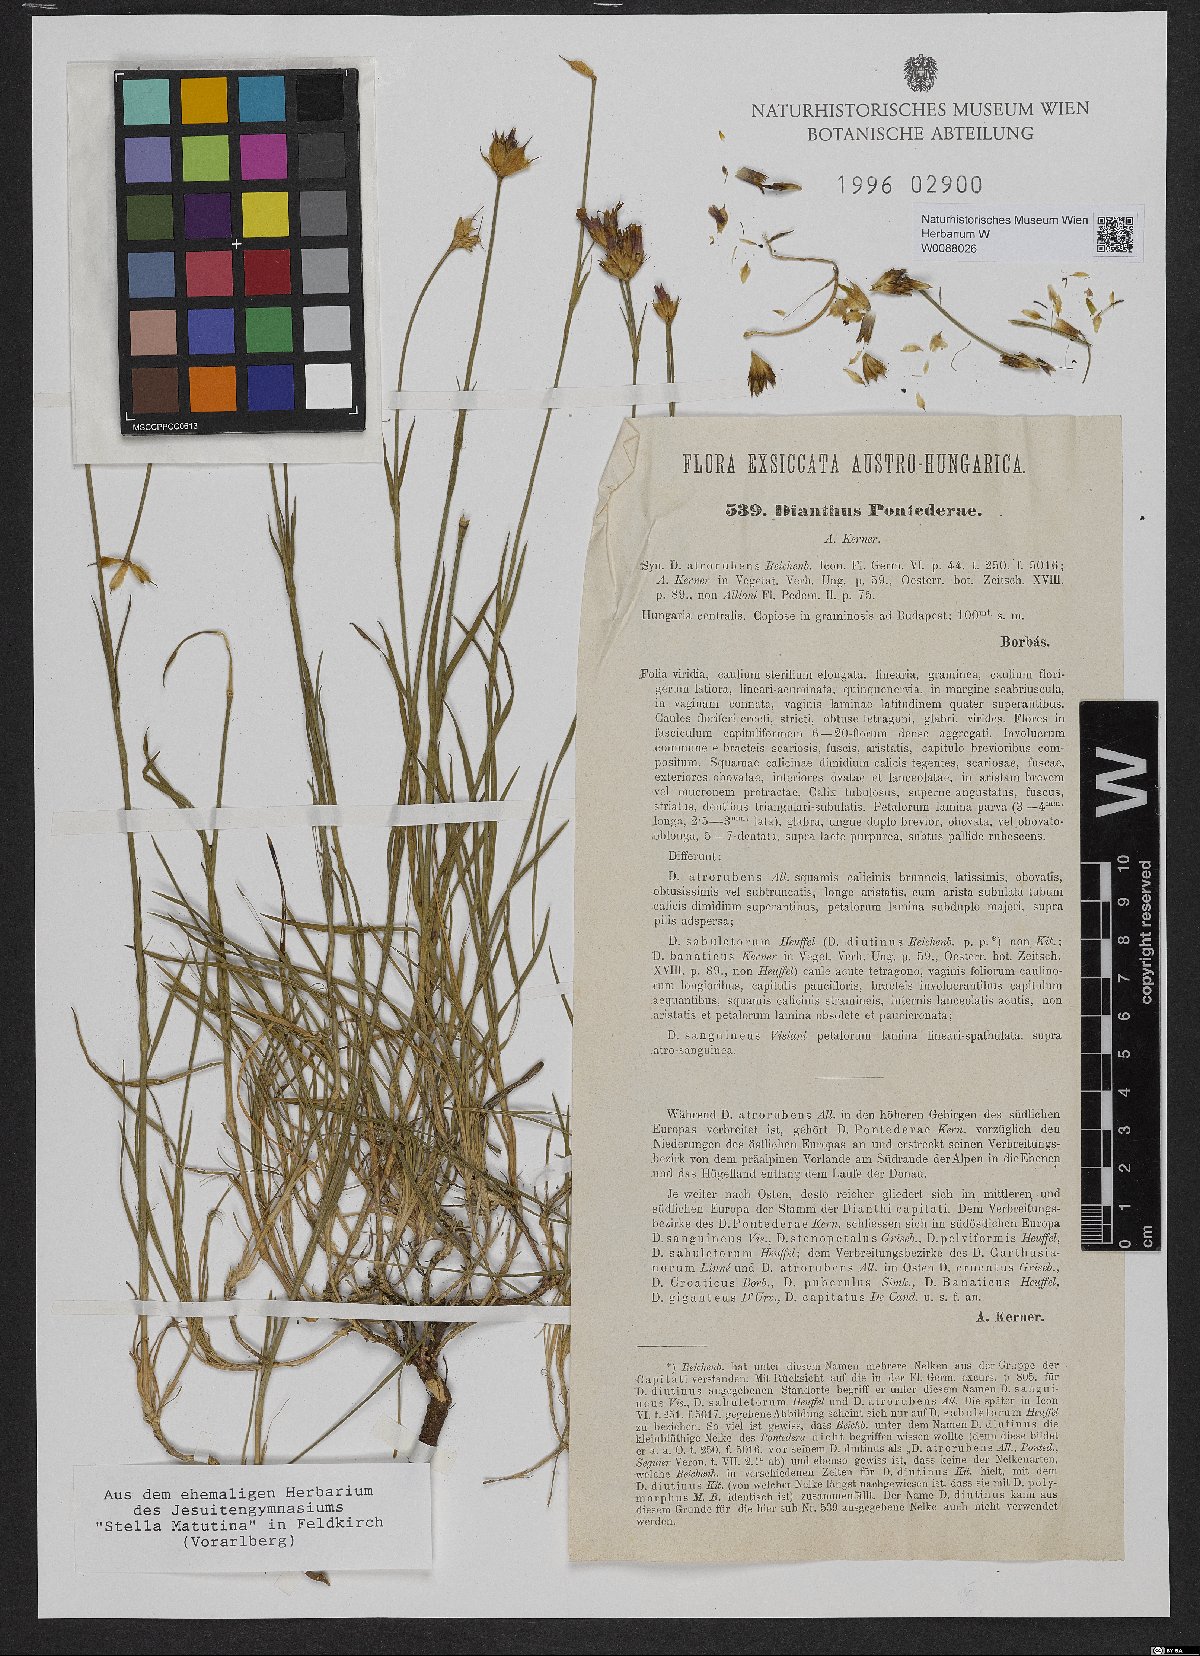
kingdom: Plantae
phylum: Tracheophyta
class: Magnoliopsida
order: Caryophyllales
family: Caryophyllaceae
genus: Dianthus
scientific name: Dianthus pontederae
